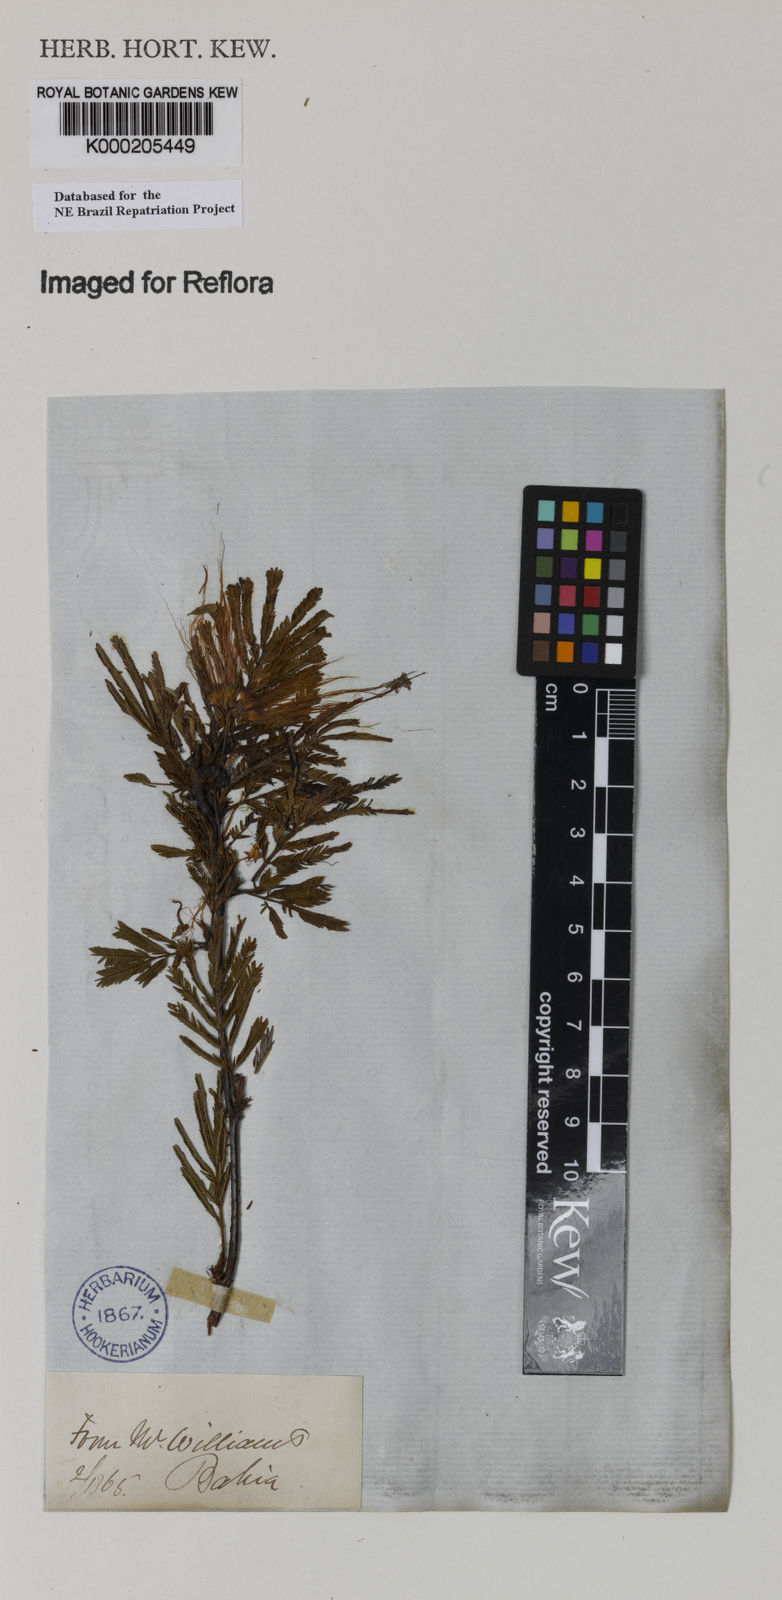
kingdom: Plantae
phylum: Tracheophyta
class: Magnoliopsida
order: Fabales
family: Fabaceae
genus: Calliandra
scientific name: Calliandra parvifolia
